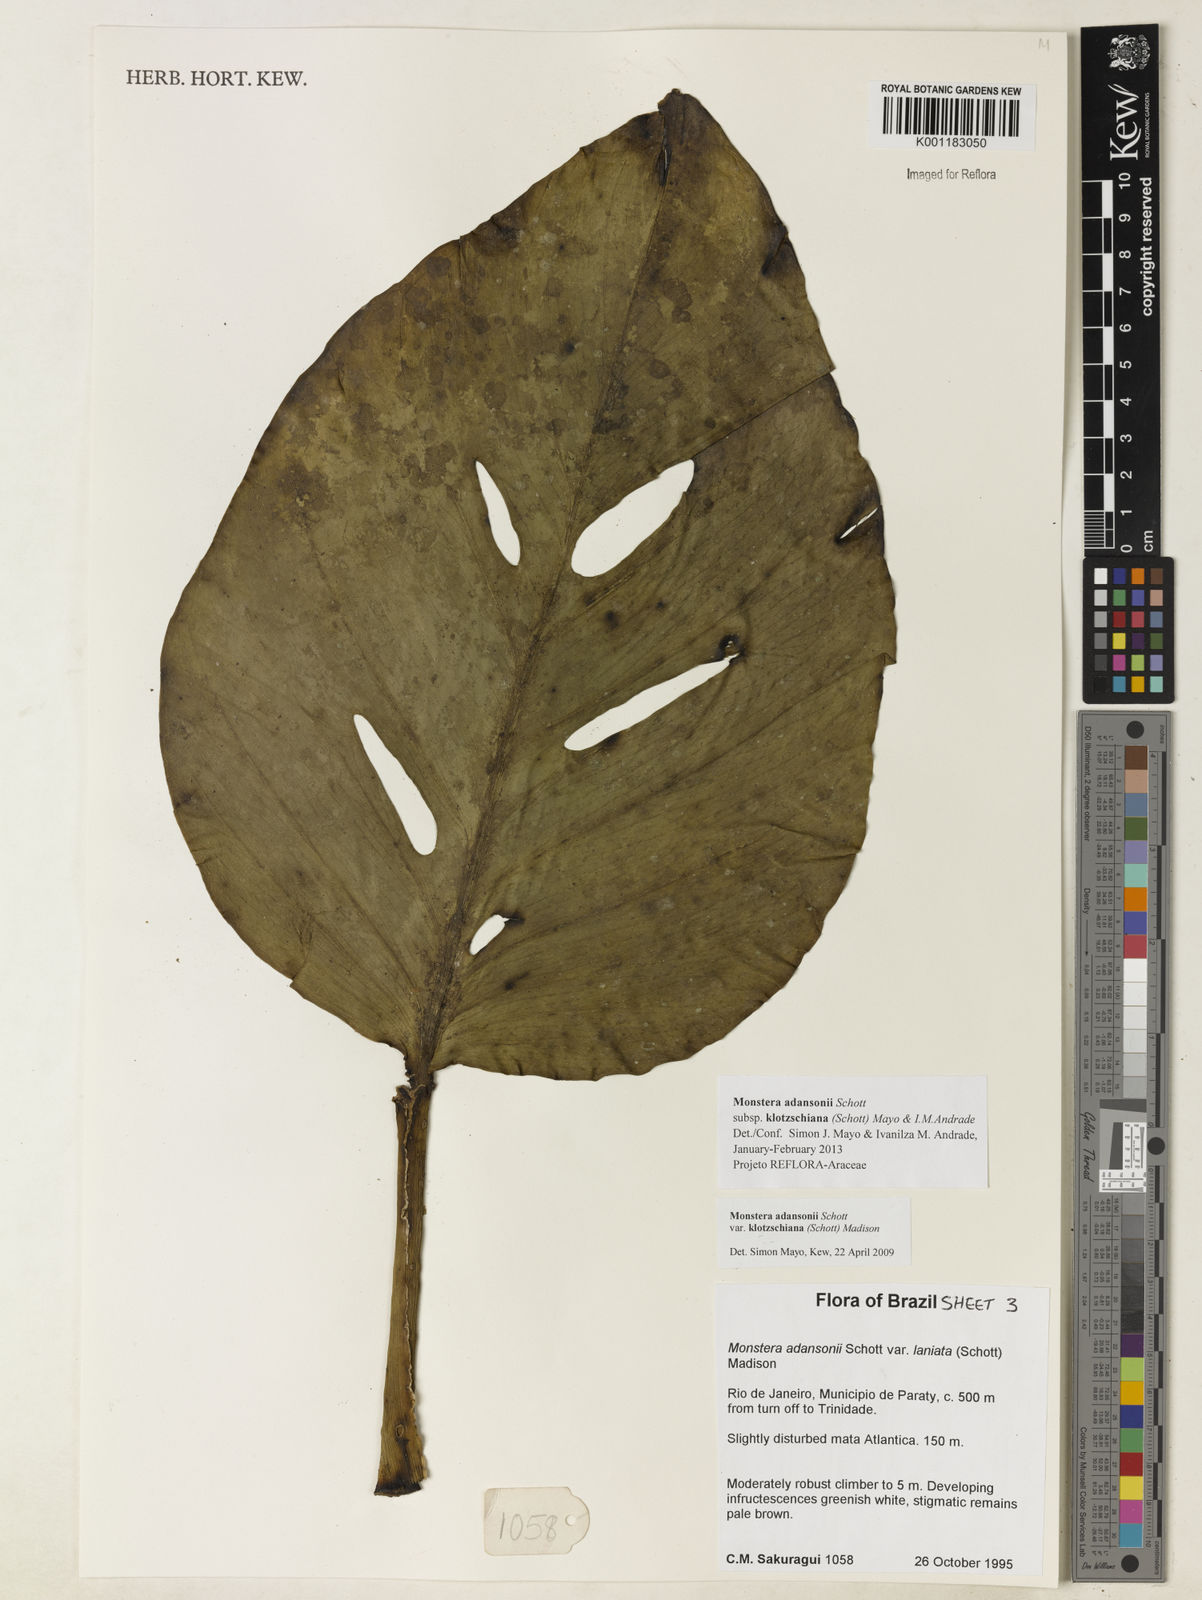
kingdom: Plantae
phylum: Tracheophyta
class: Liliopsida
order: Alismatales
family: Araceae
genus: Monstera
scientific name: Monstera adansonii
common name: Tarovine
